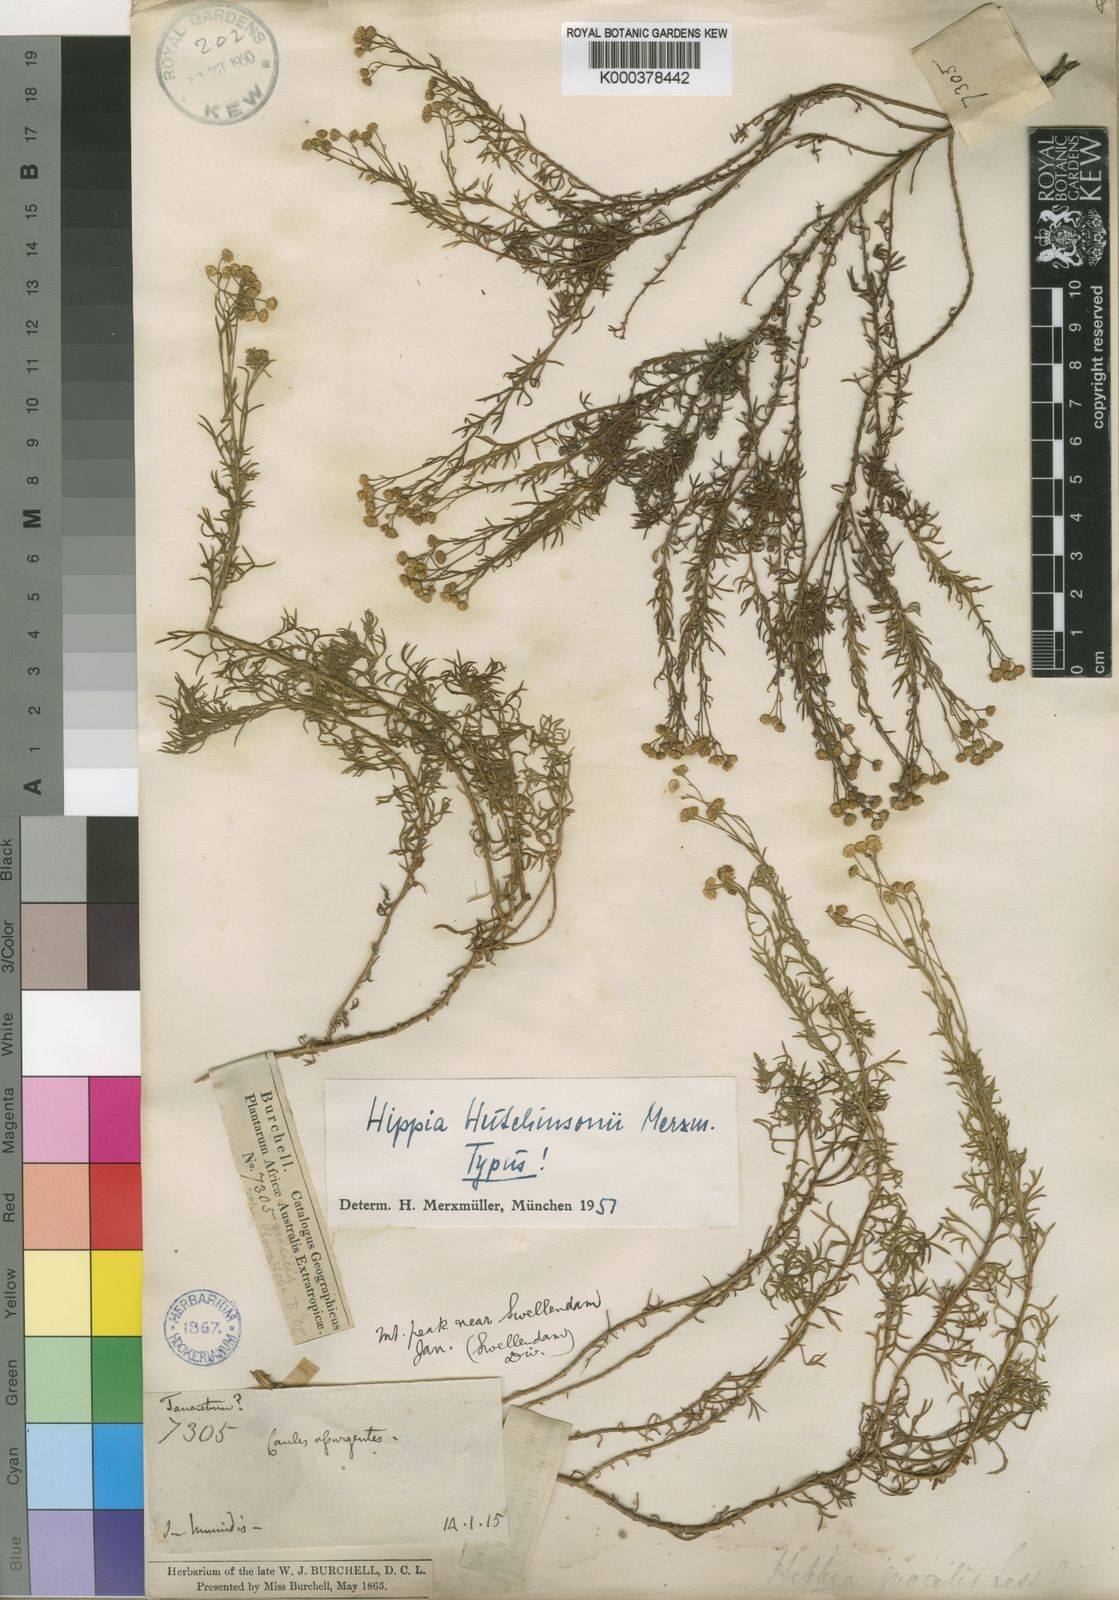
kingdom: Plantae
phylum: Tracheophyta
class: Magnoliopsida
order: Asterales
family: Asteraceae
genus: Hippia
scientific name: Hippia hutchinsonii
